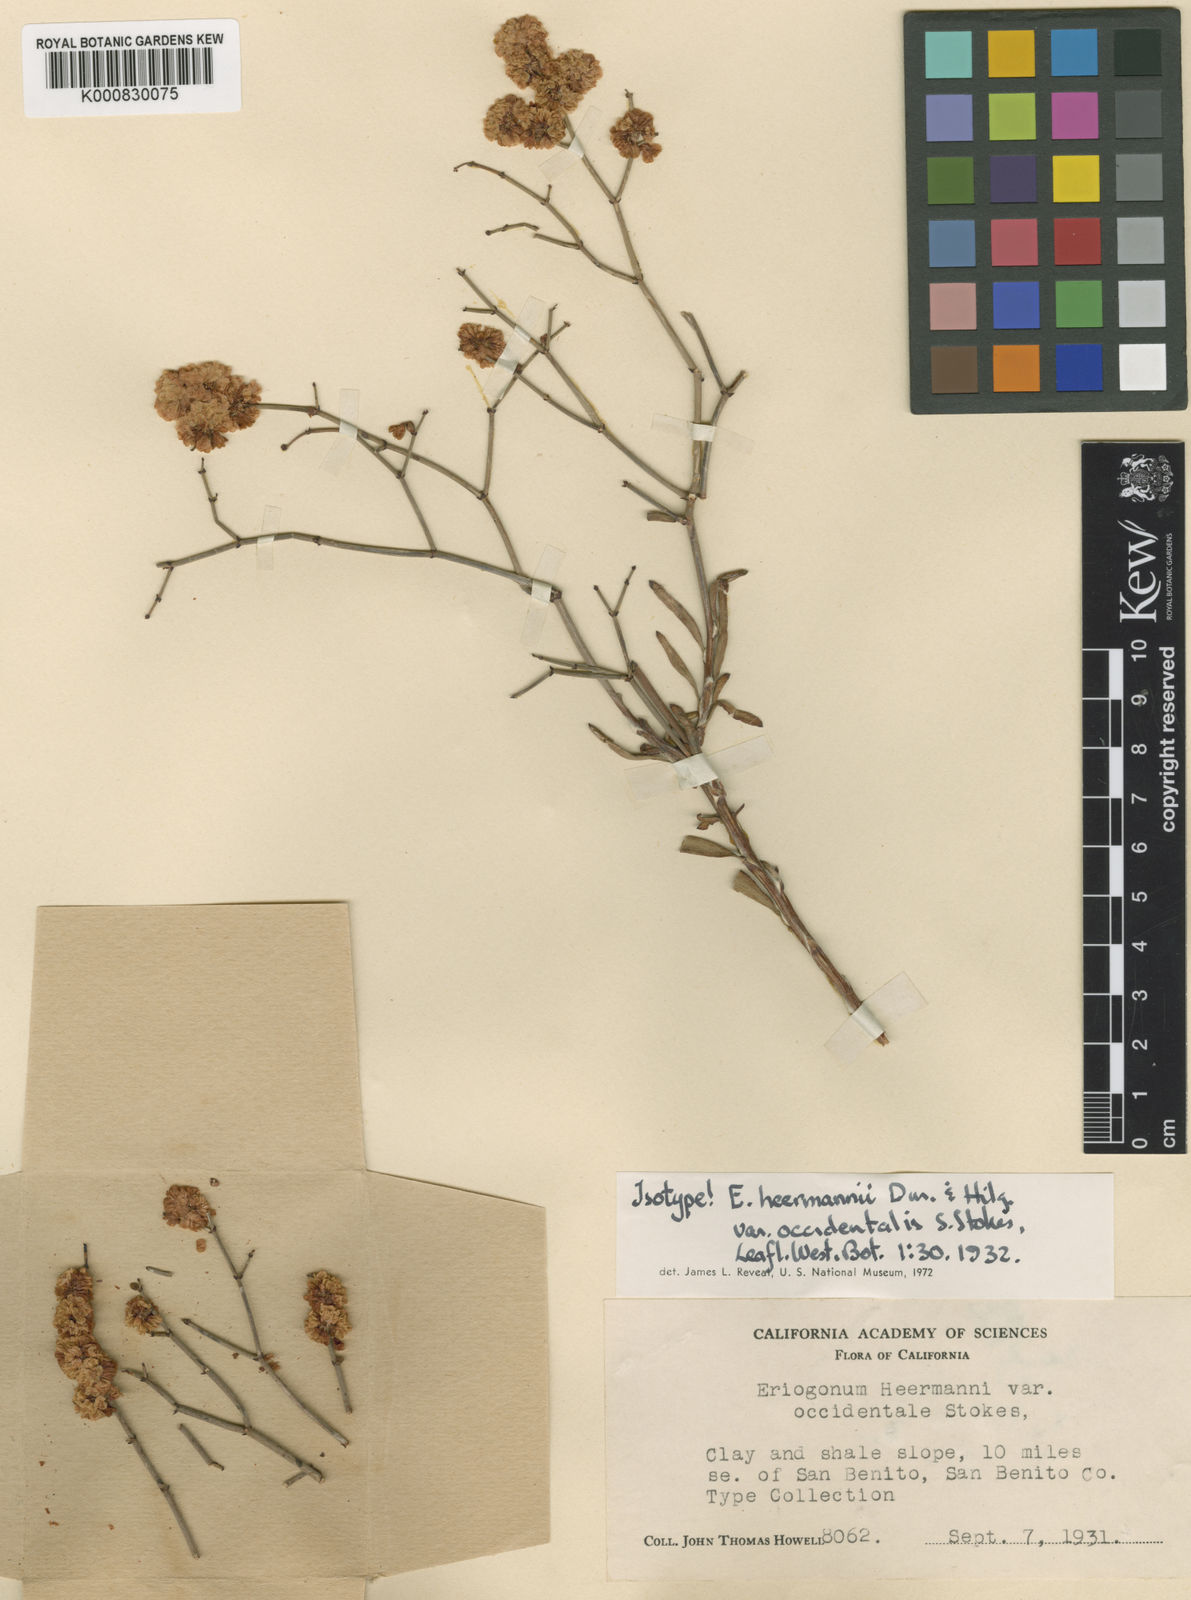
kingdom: Plantae
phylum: Tracheophyta
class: Magnoliopsida
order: Caryophyllales
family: Polygonaceae
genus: Eriogonum
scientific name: Eriogonum heermannii
